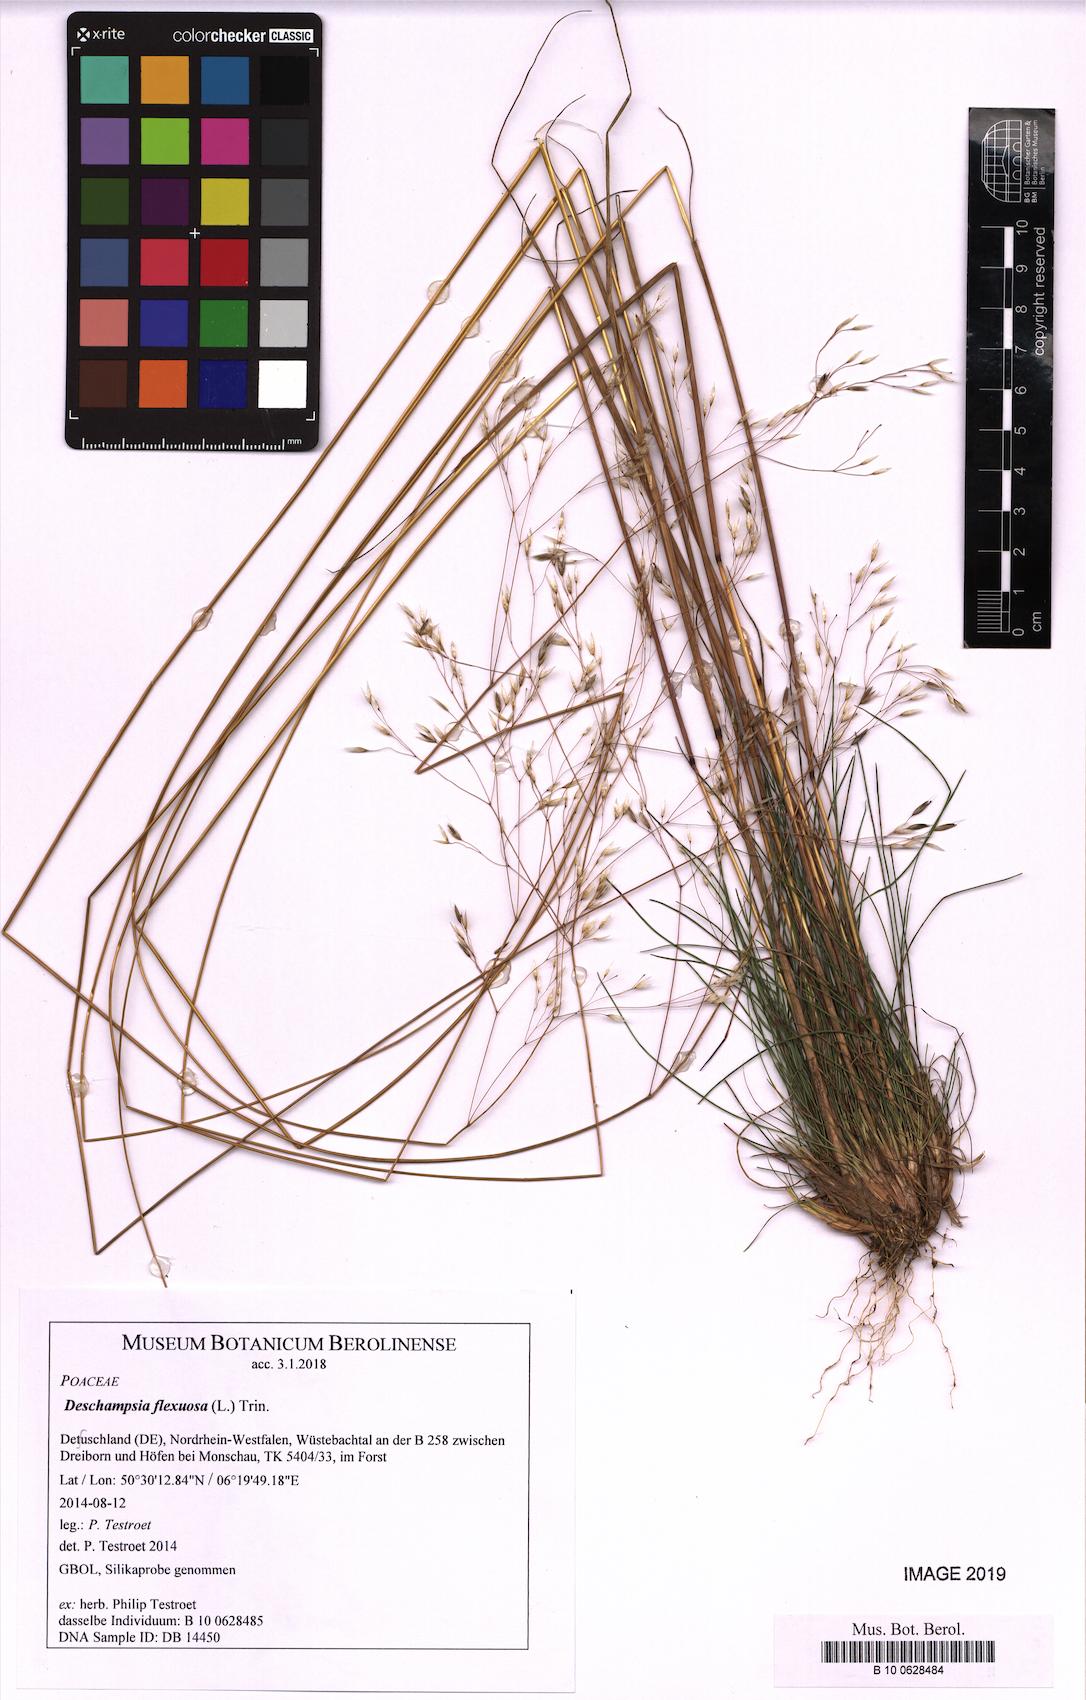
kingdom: Plantae
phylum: Tracheophyta
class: Liliopsida
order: Poales
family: Poaceae
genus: Avenella
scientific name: Avenella flexuosa
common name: Wavy hairgrass
